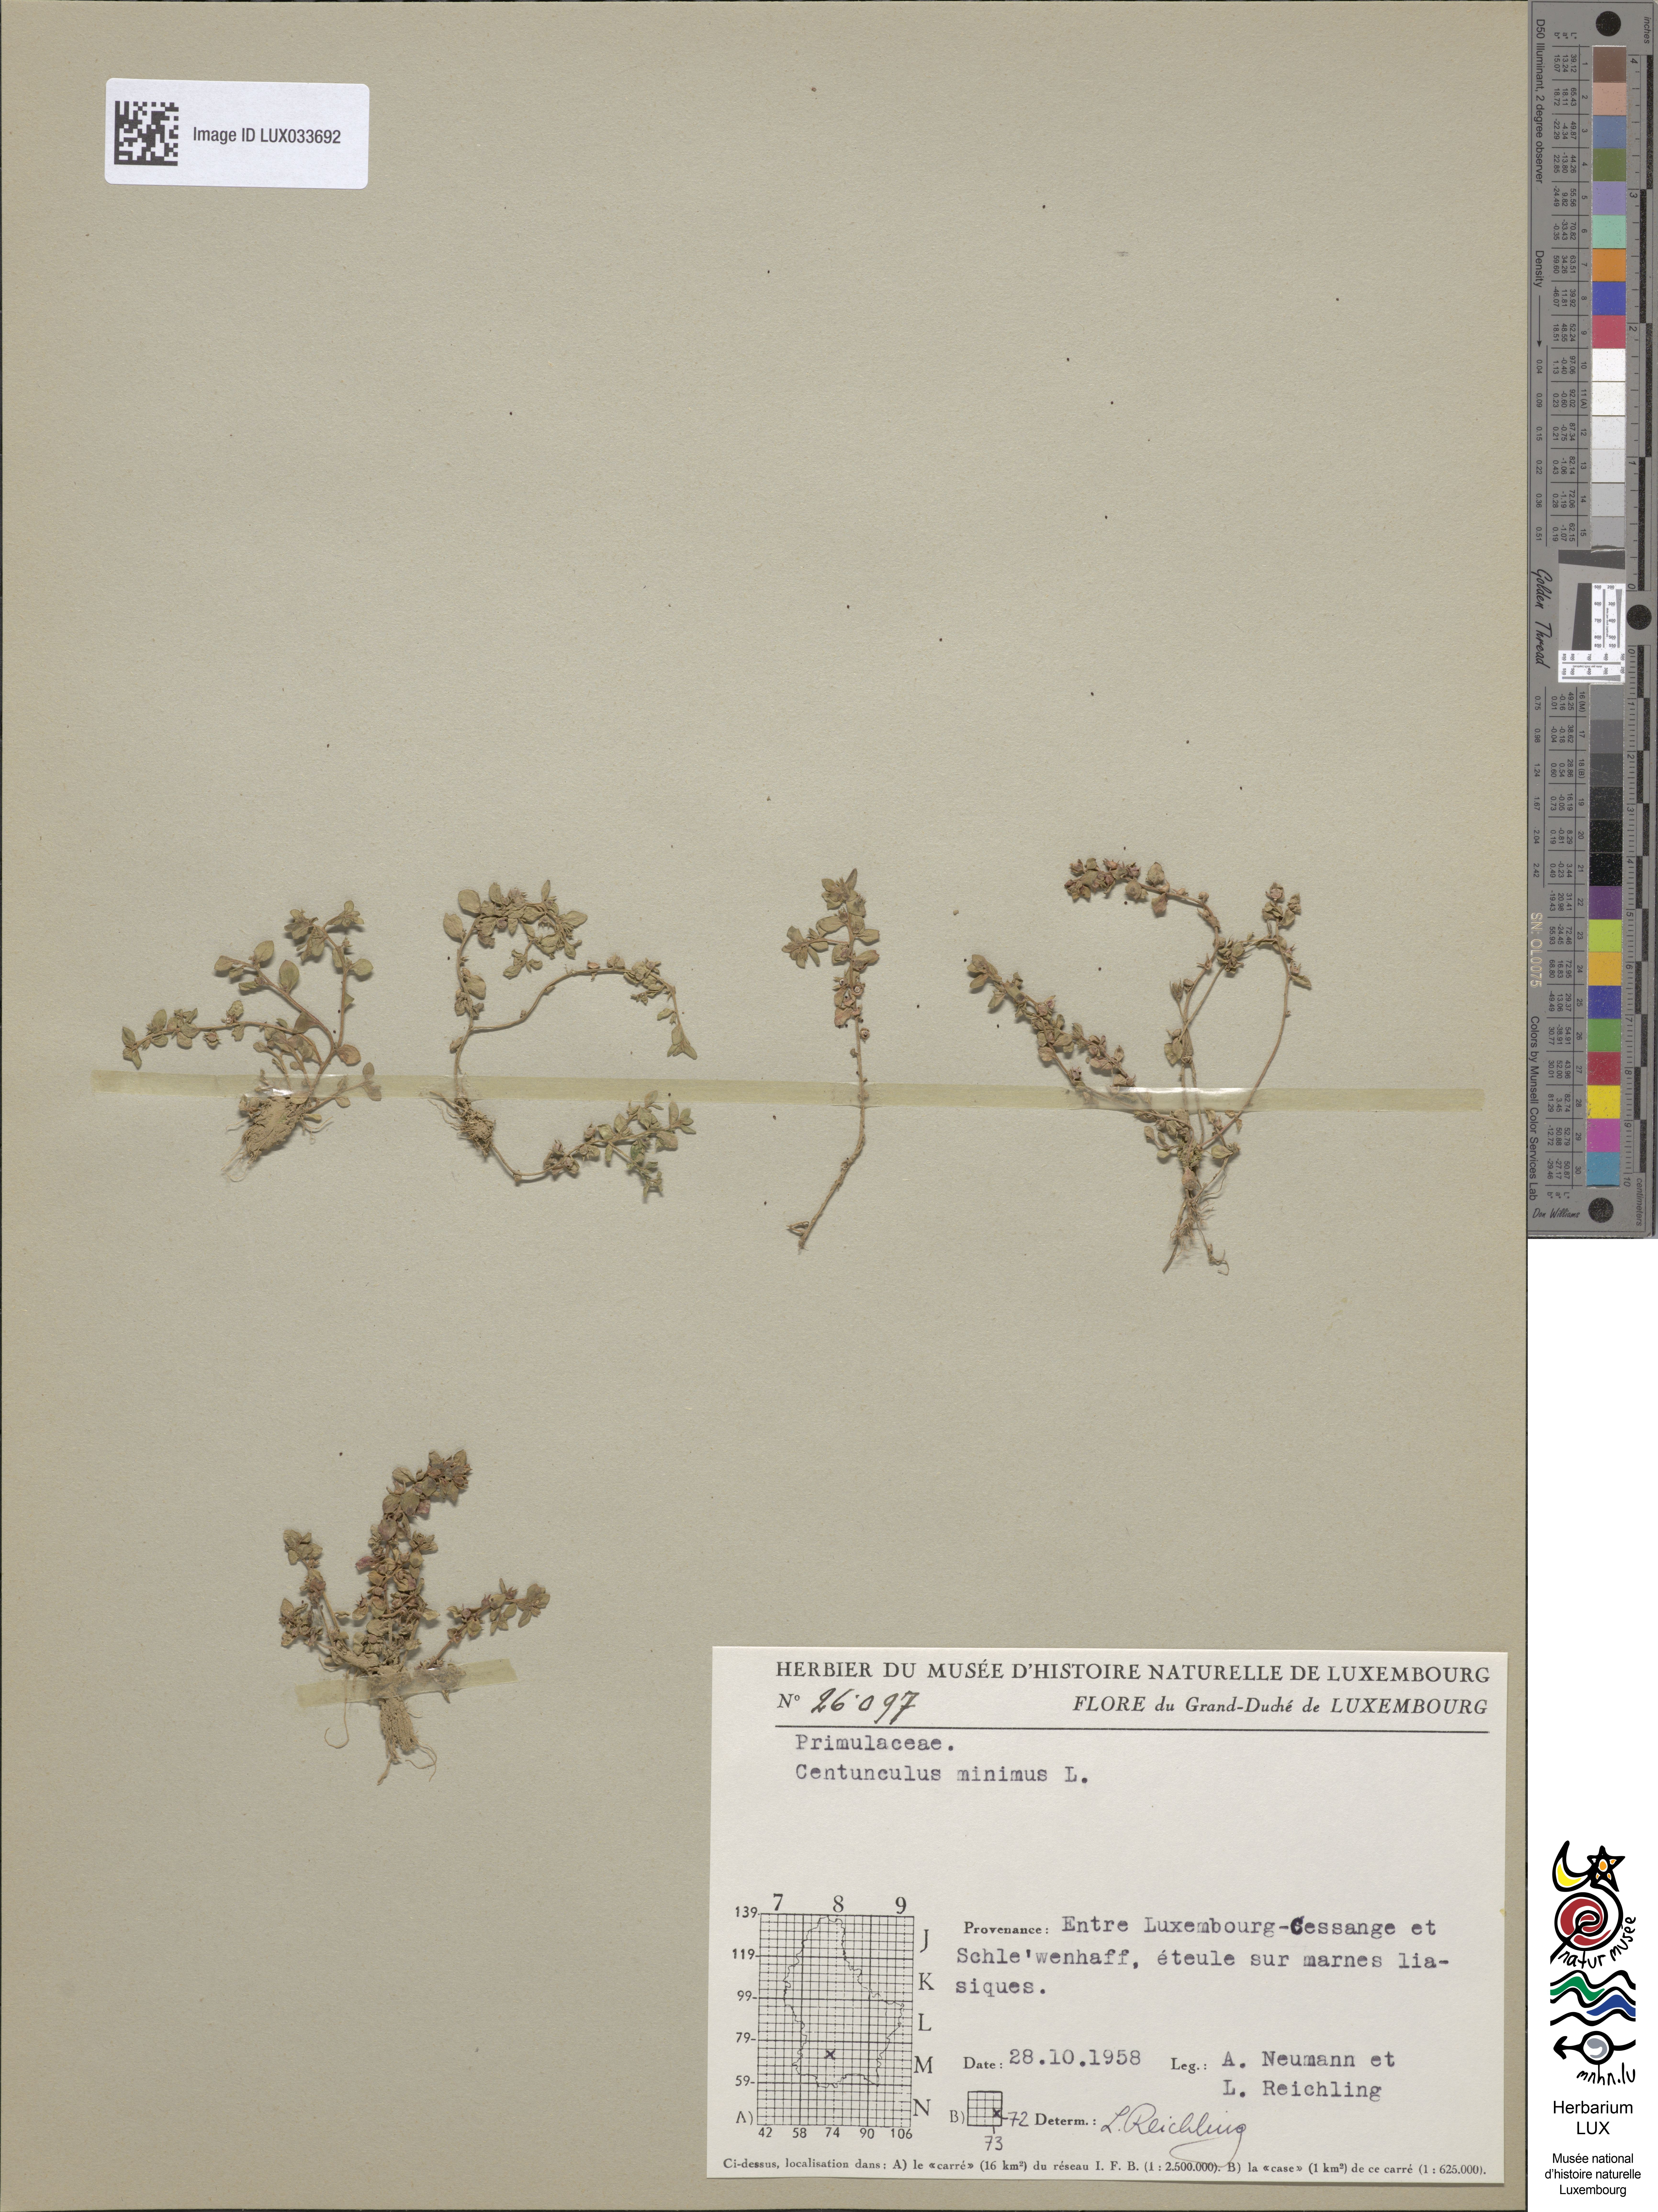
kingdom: Plantae
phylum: Tracheophyta
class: Magnoliopsida
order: Ericales
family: Primulaceae
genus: Lysimachia
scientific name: Lysimachia minima
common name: Chaffweed
